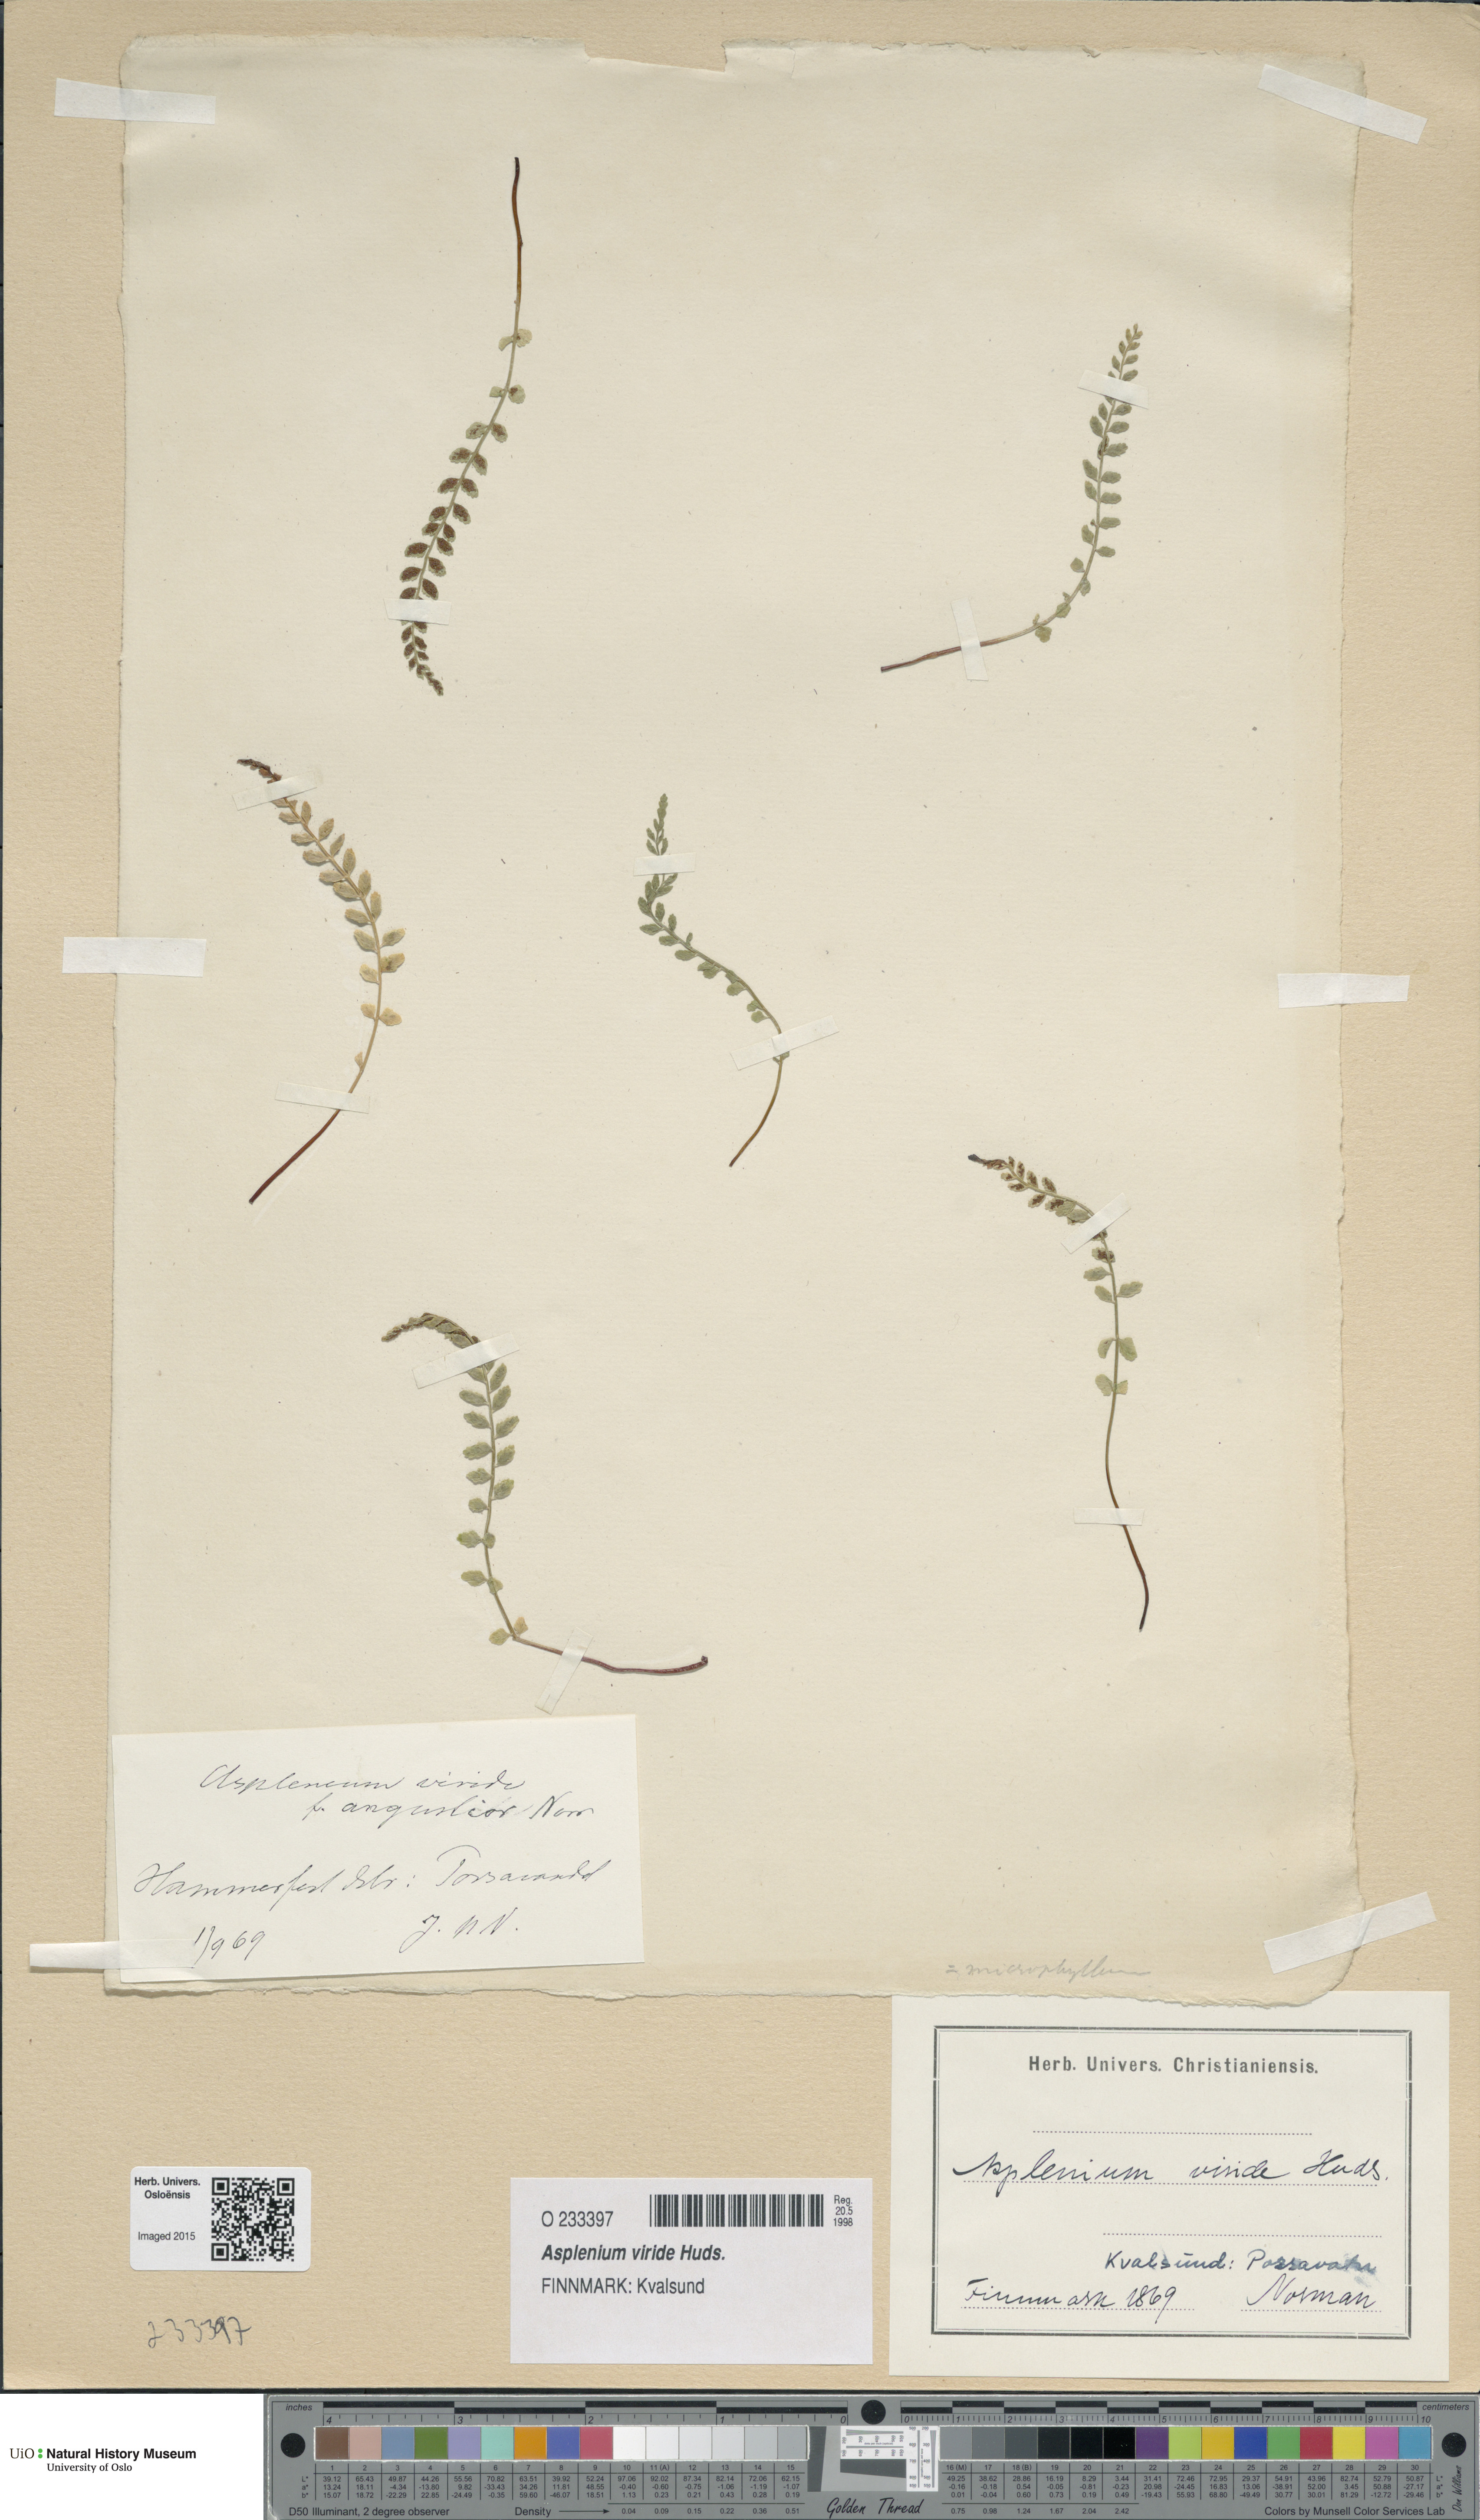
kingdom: Plantae
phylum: Tracheophyta
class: Polypodiopsida
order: Polypodiales
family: Aspleniaceae
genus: Asplenium
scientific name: Asplenium viride
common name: Green spleenwort
